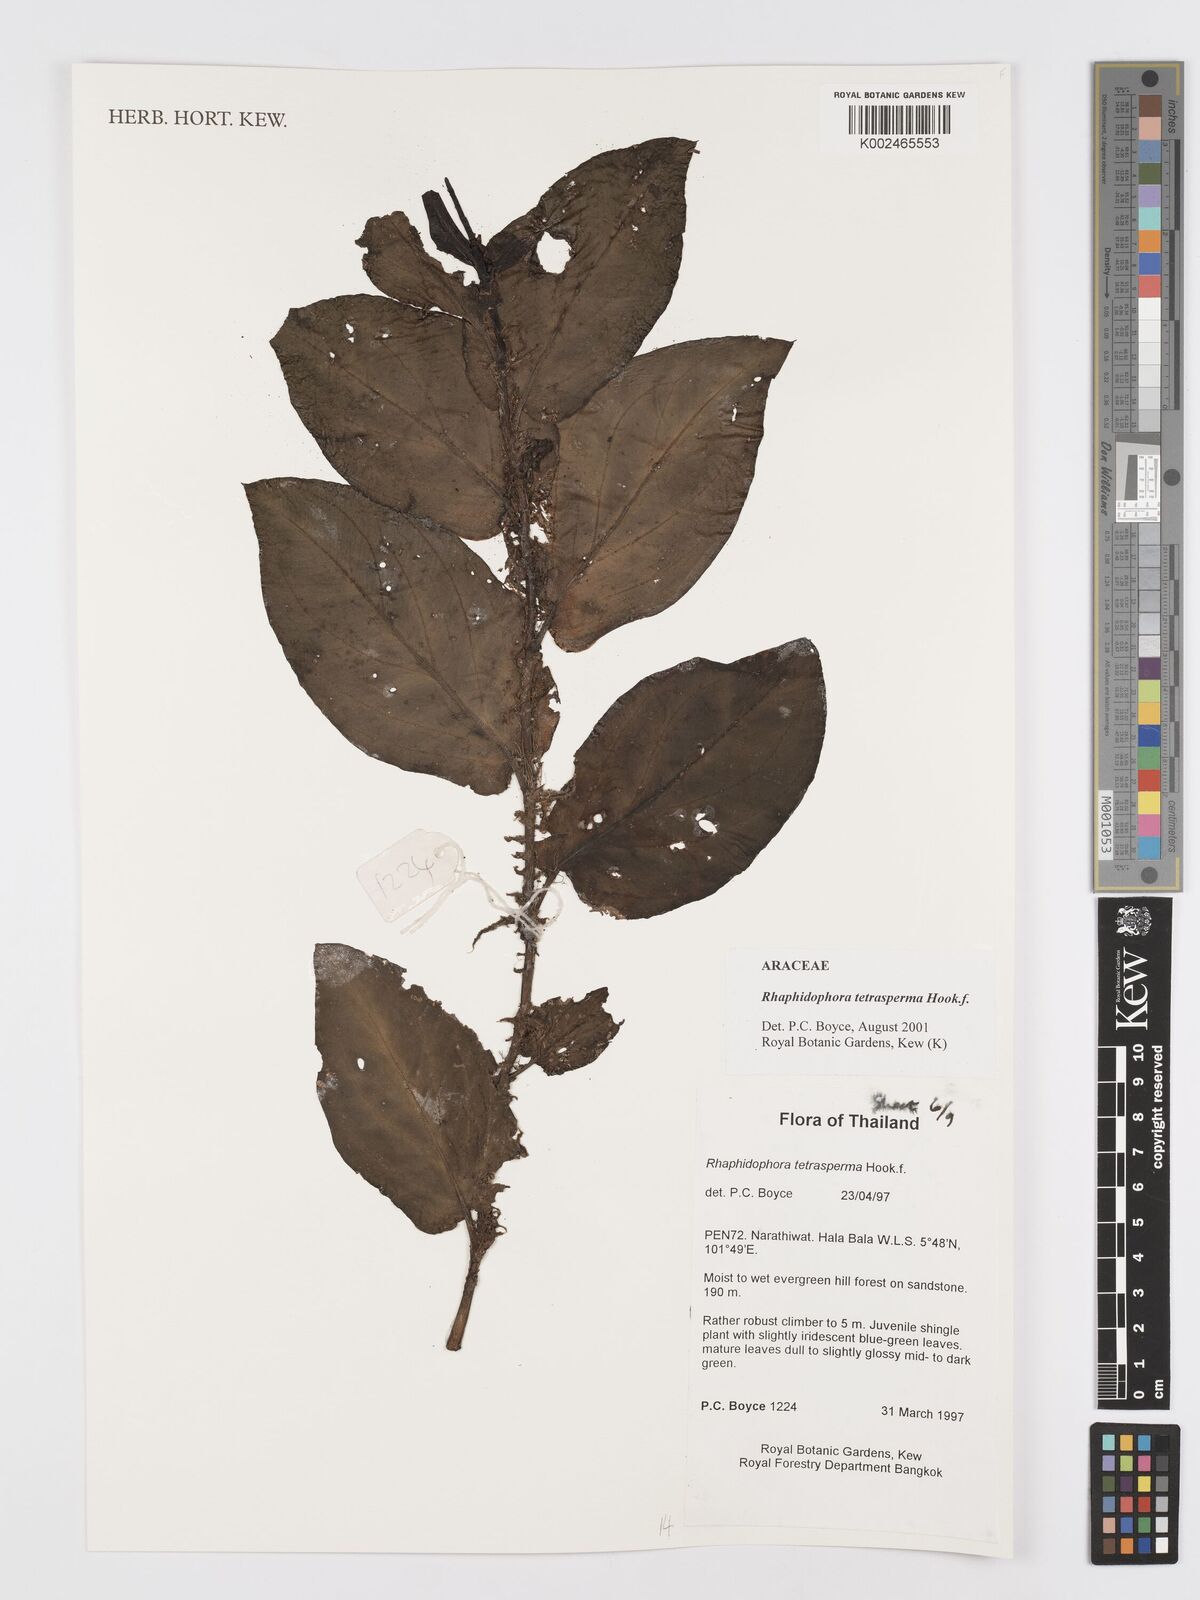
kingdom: Plantae
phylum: Tracheophyta
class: Liliopsida
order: Alismatales
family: Araceae
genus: Rhaphidophora
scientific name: Rhaphidophora tetrasperma
